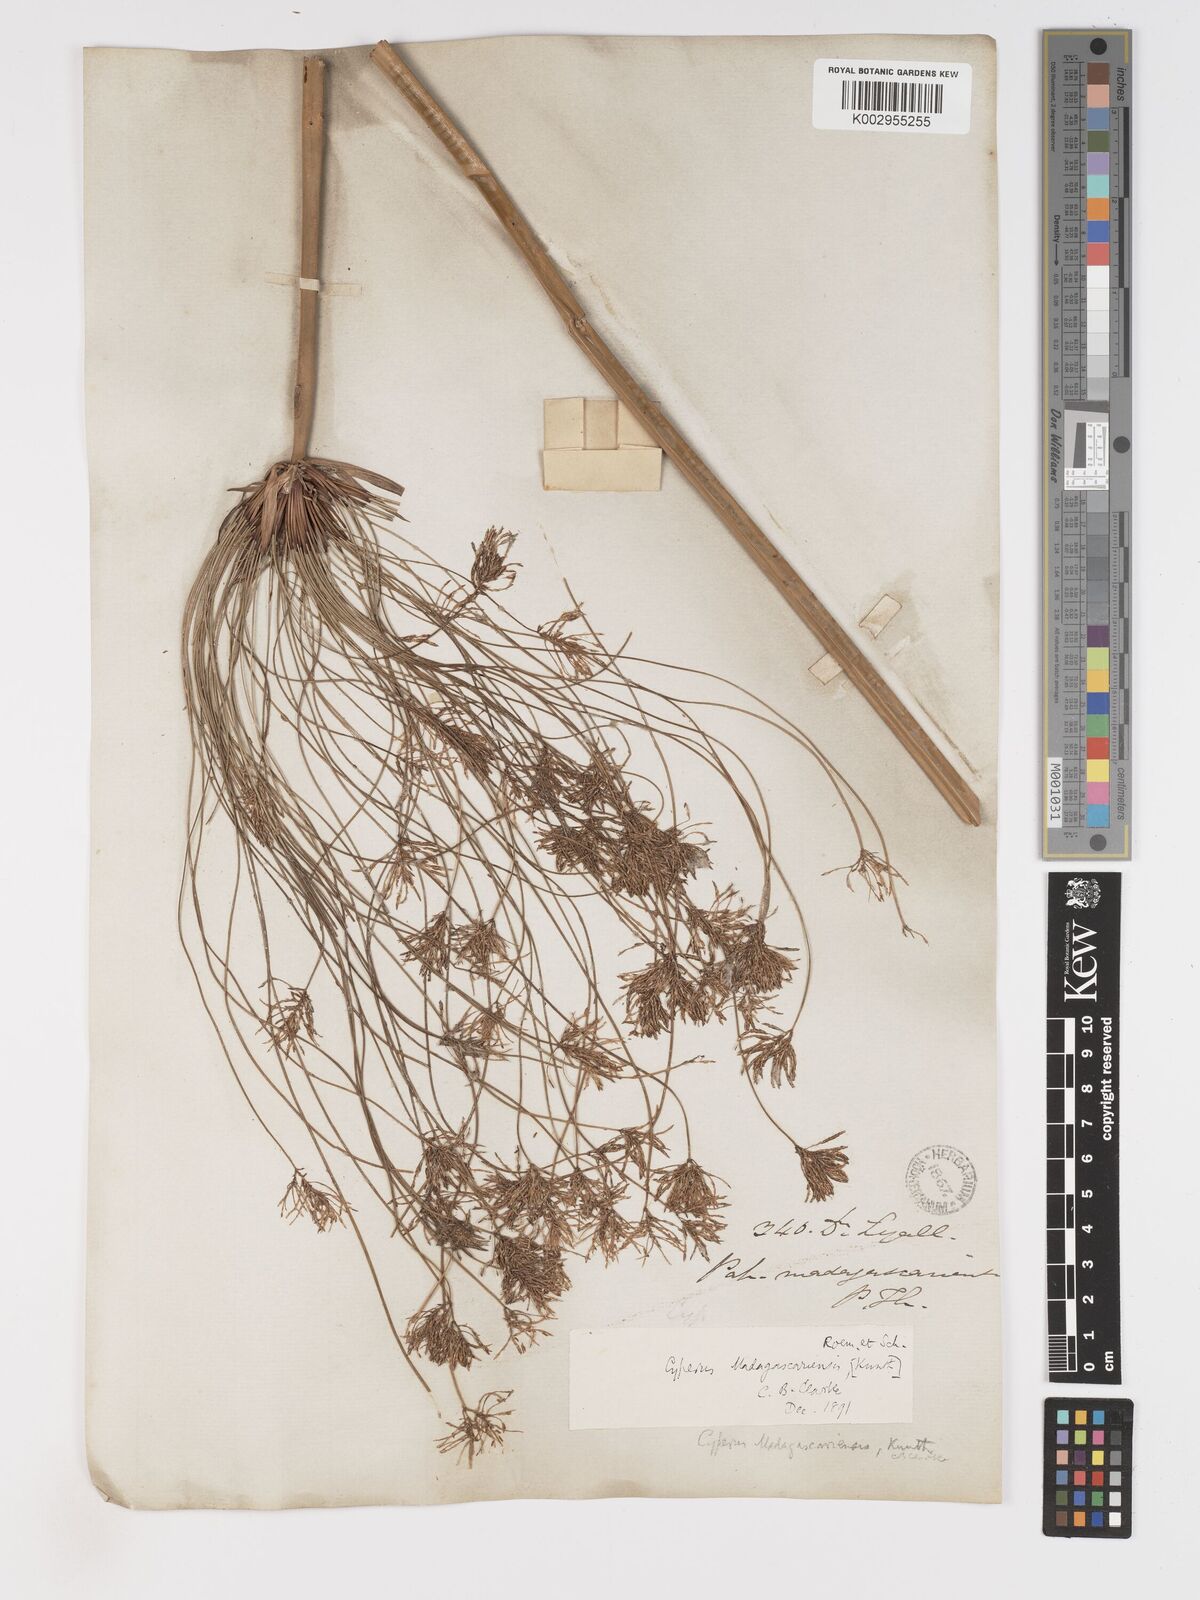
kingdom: Plantae
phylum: Tracheophyta
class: Liliopsida
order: Poales
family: Cyperaceae
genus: Cyperus
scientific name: Cyperus papyrus
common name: Papyrus
